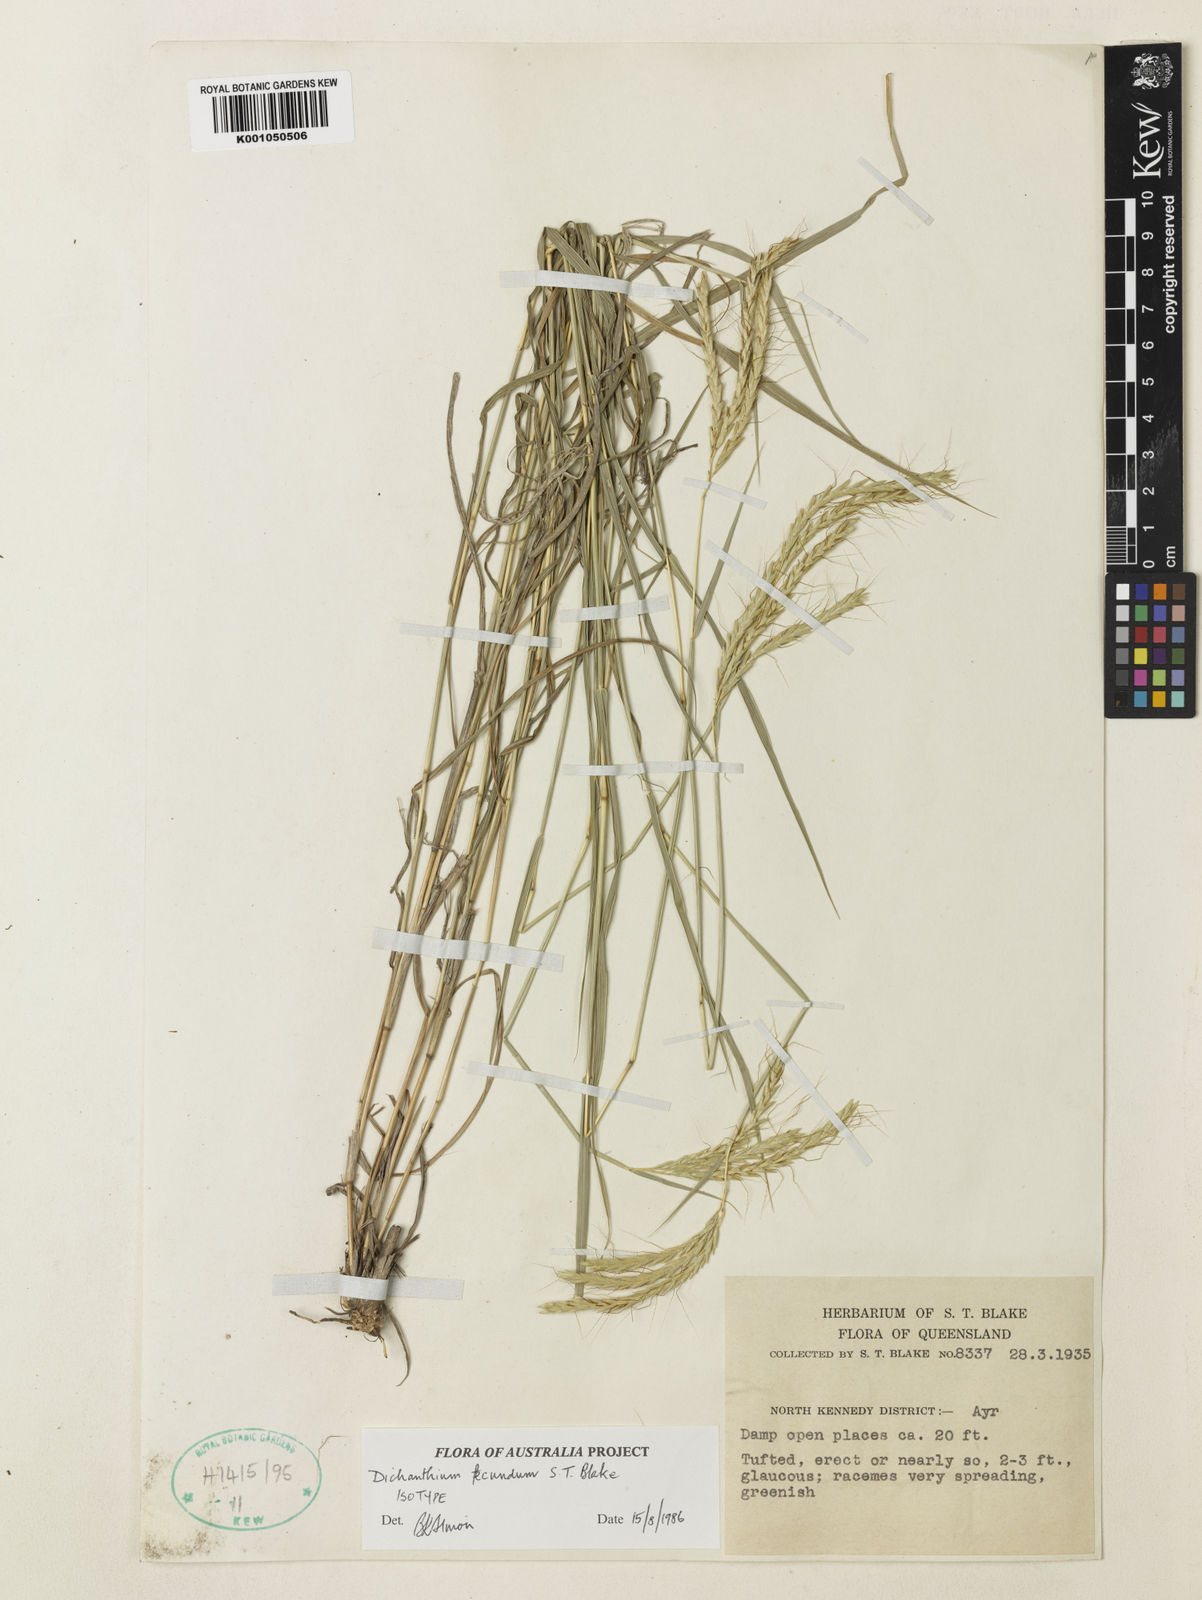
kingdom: Plantae
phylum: Tracheophyta
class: Liliopsida
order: Poales
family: Poaceae
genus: Dichanthium
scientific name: Dichanthium annulatum
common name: Kleberg's bluestem
